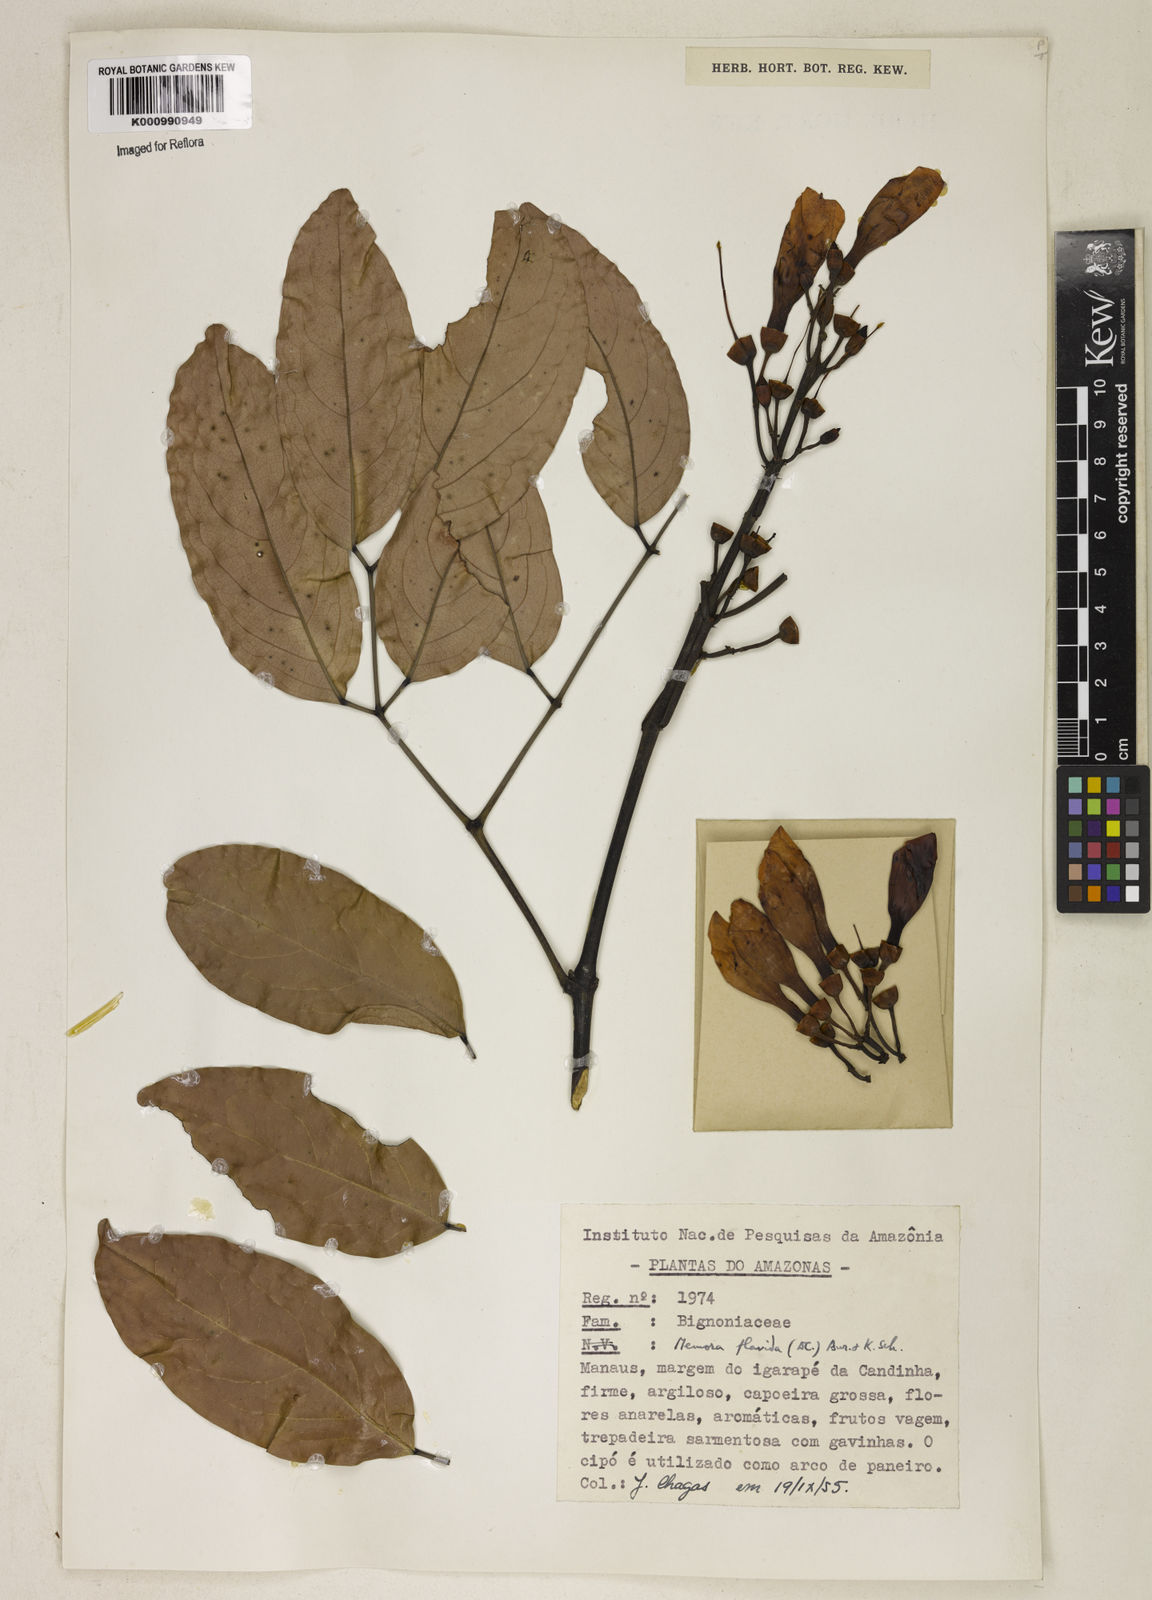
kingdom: Plantae
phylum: Tracheophyta
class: Magnoliopsida
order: Lamiales
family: Bignoniaceae
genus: Adenocalymma
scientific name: Adenocalymma neoflavidum
